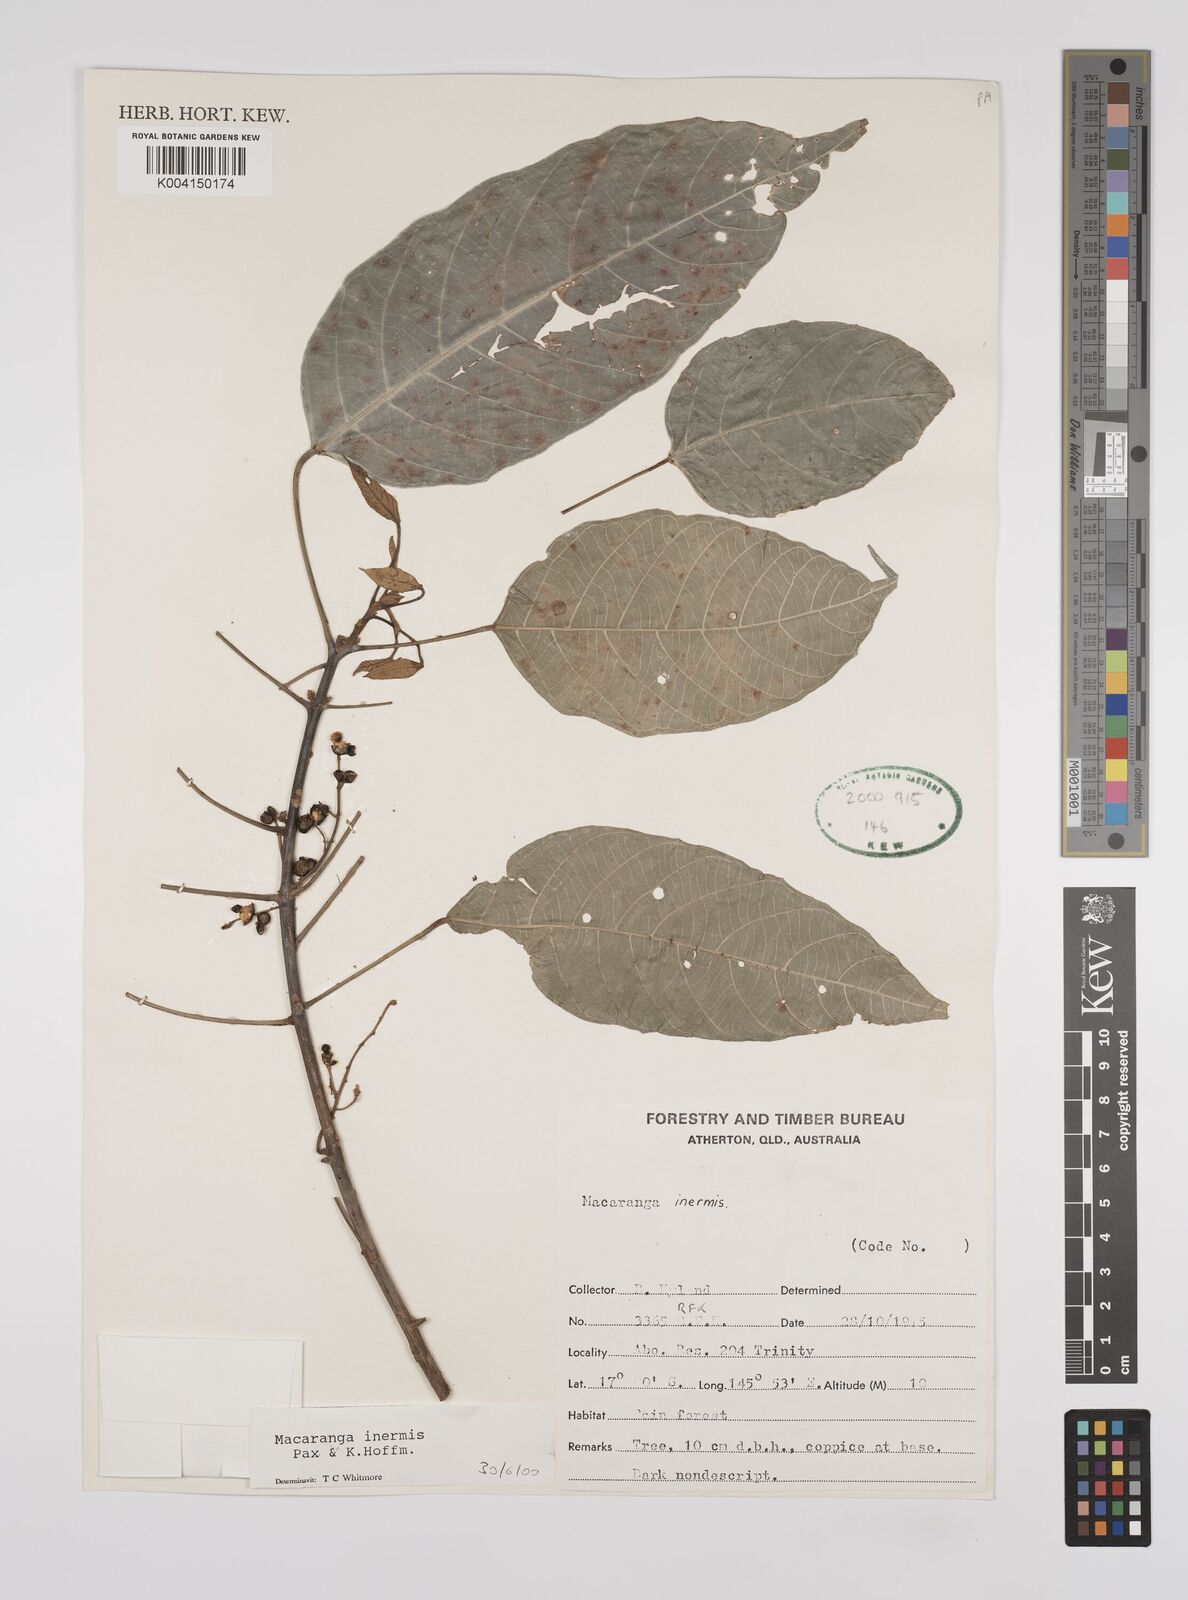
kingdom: Plantae
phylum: Tracheophyta
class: Magnoliopsida
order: Malpighiales
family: Euphorbiaceae
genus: Macaranga
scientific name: Macaranga inermis
